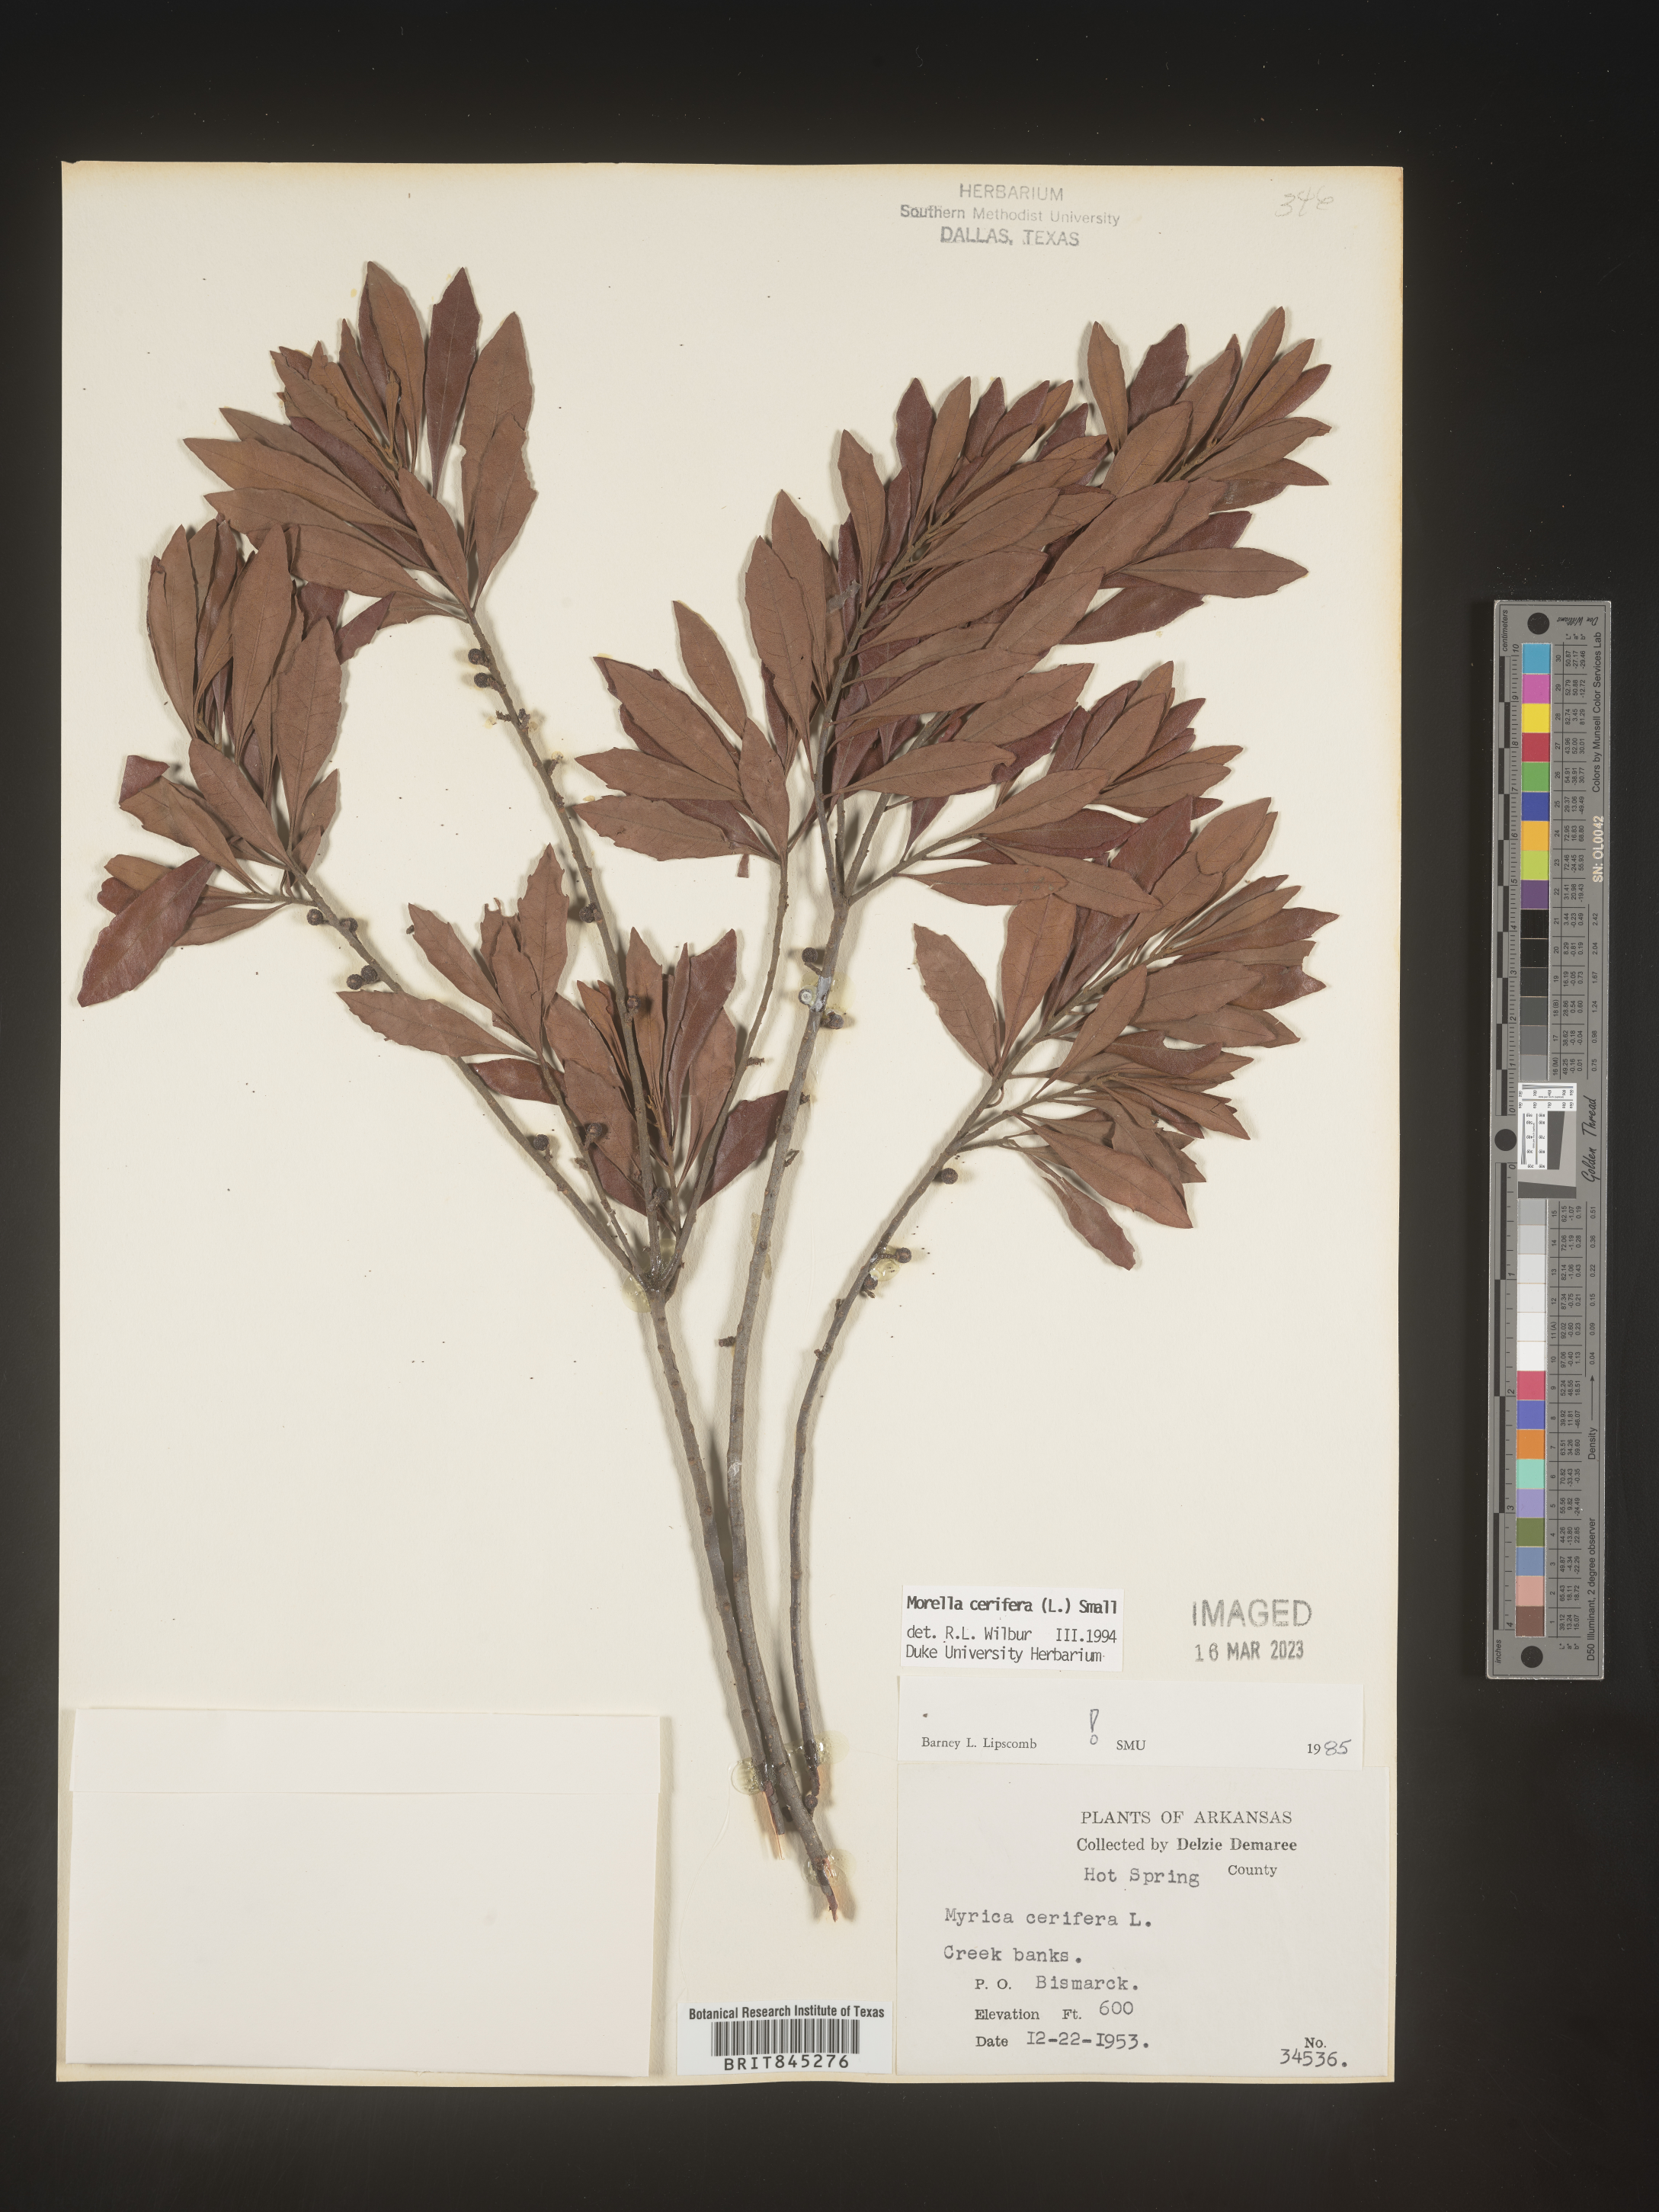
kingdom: Plantae
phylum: Tracheophyta
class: Magnoliopsida
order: Fagales
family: Myricaceae
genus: Morella
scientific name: Morella cerifera
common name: Wax myrtle
